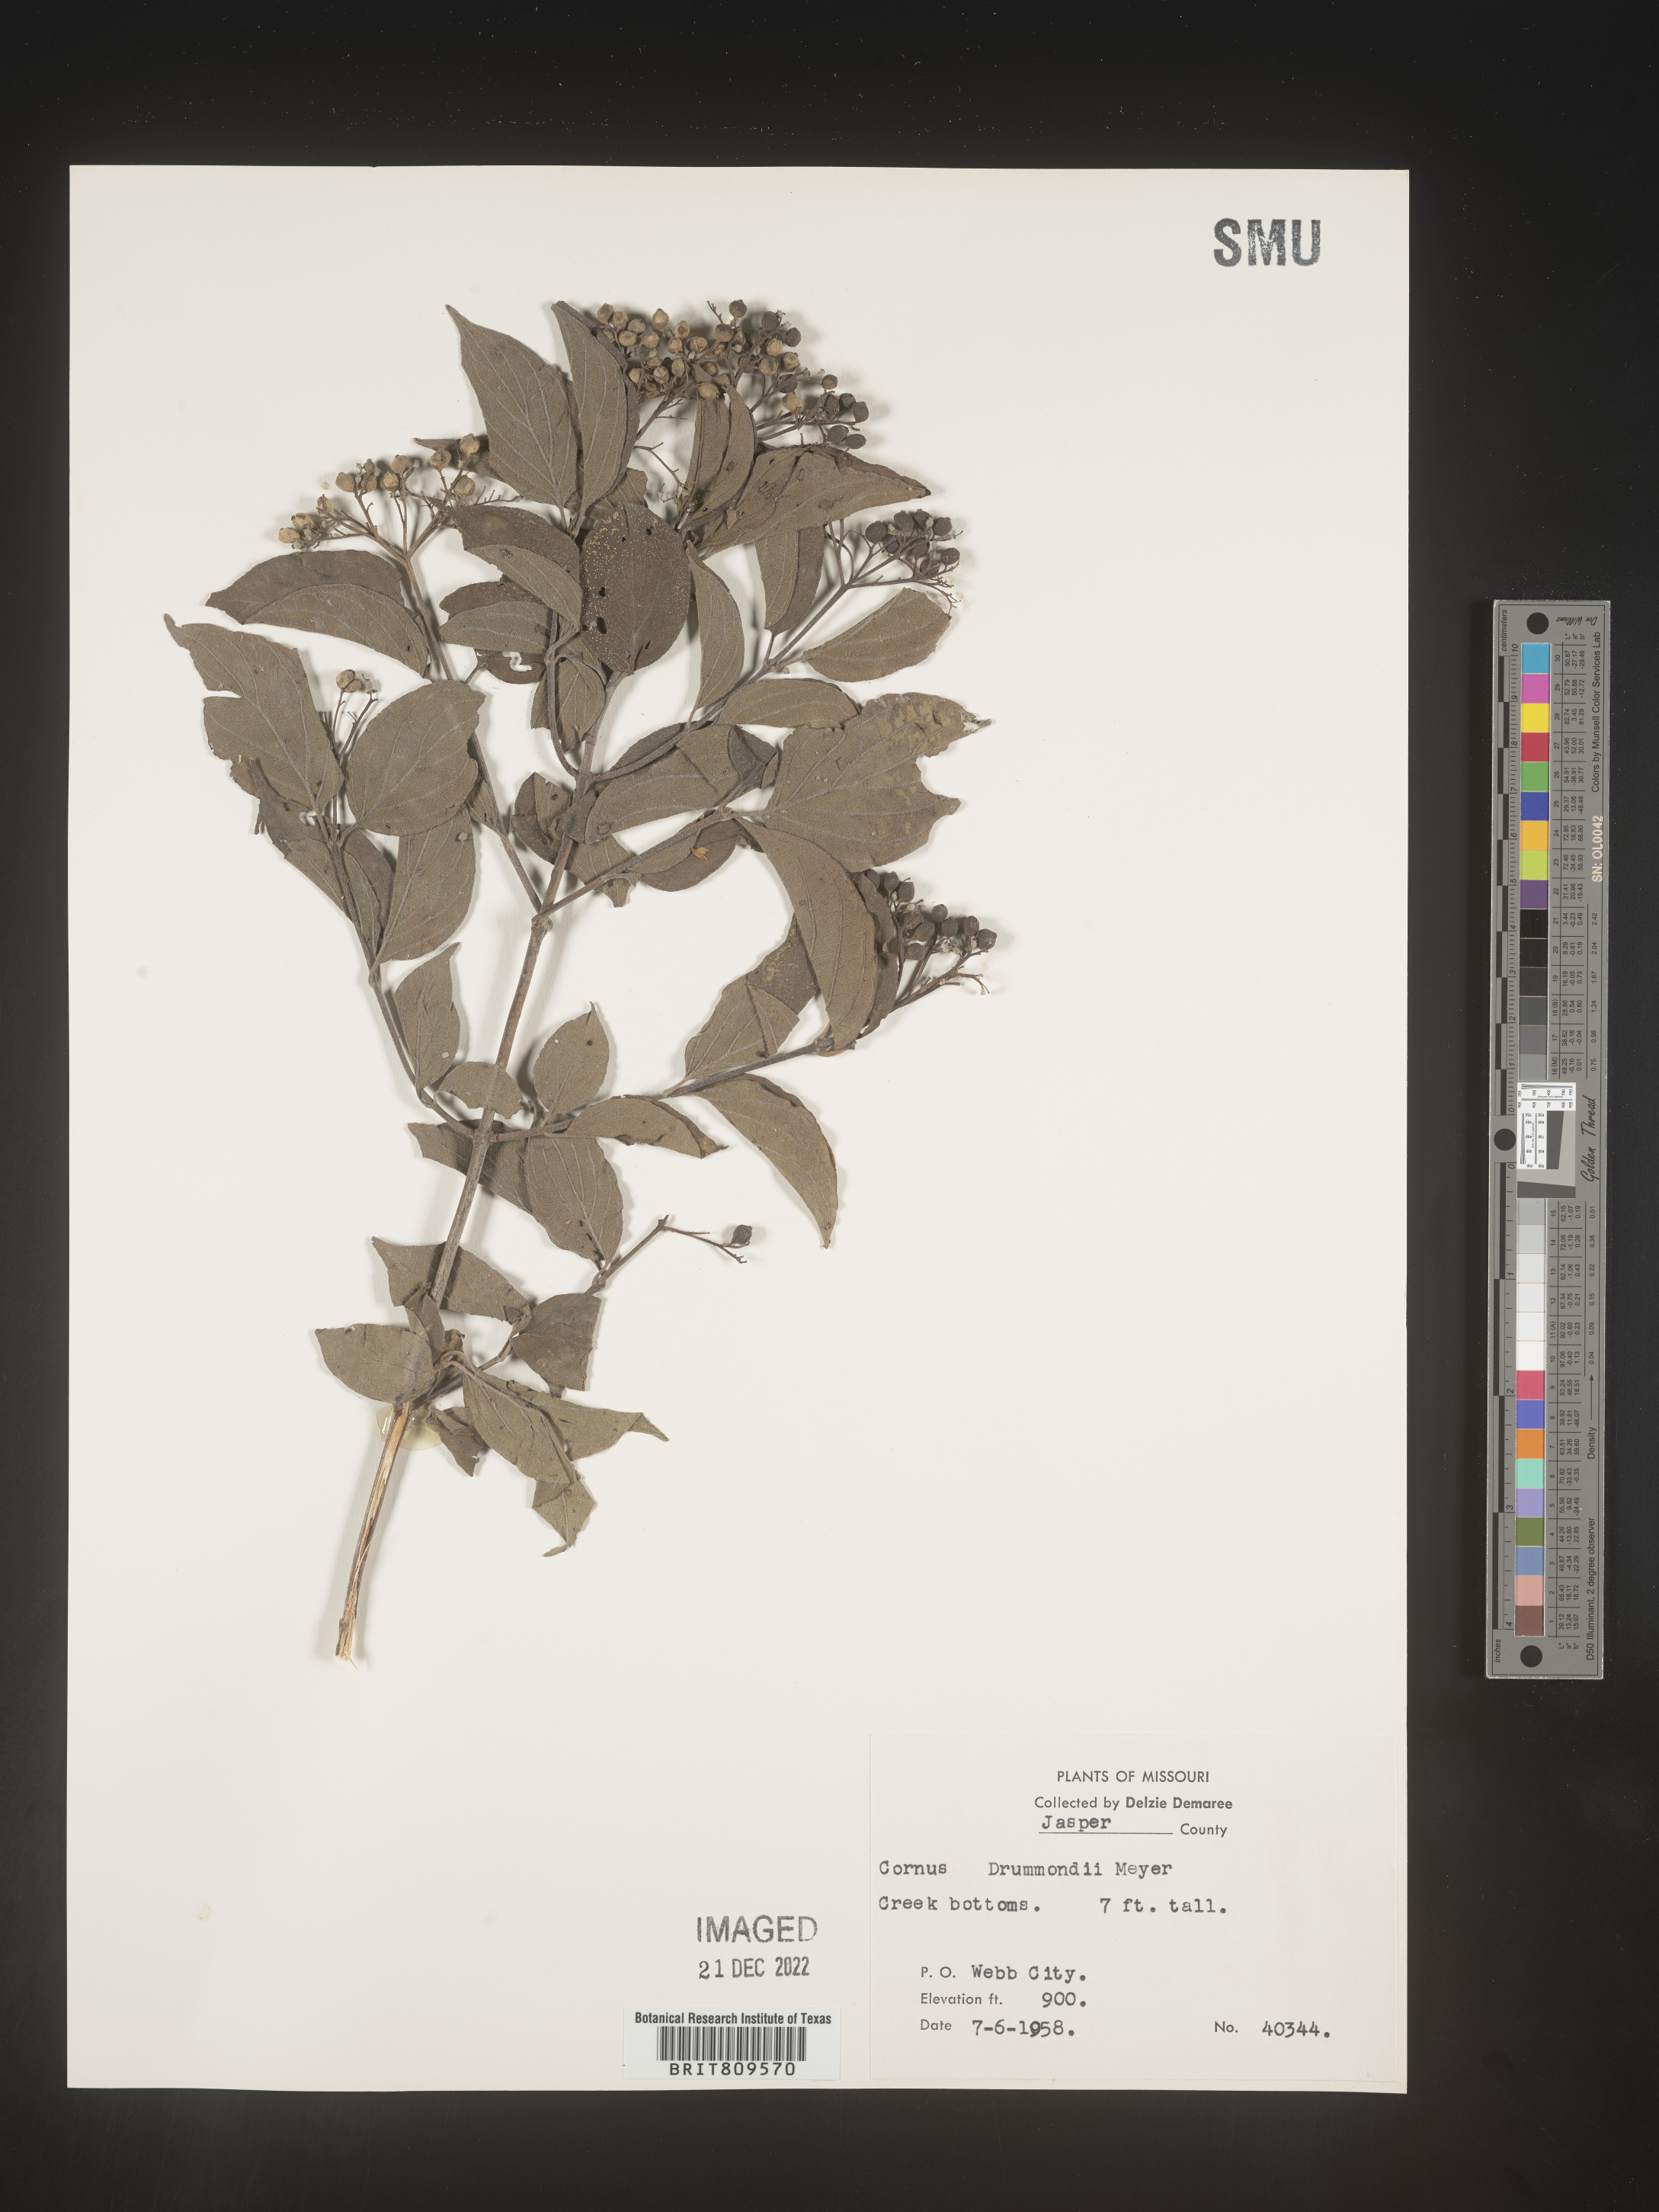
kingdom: Plantae
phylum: Tracheophyta
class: Magnoliopsida
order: Cornales
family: Cornaceae
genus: Cornus
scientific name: Cornus drummondii
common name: Rough-leaf dogwood
